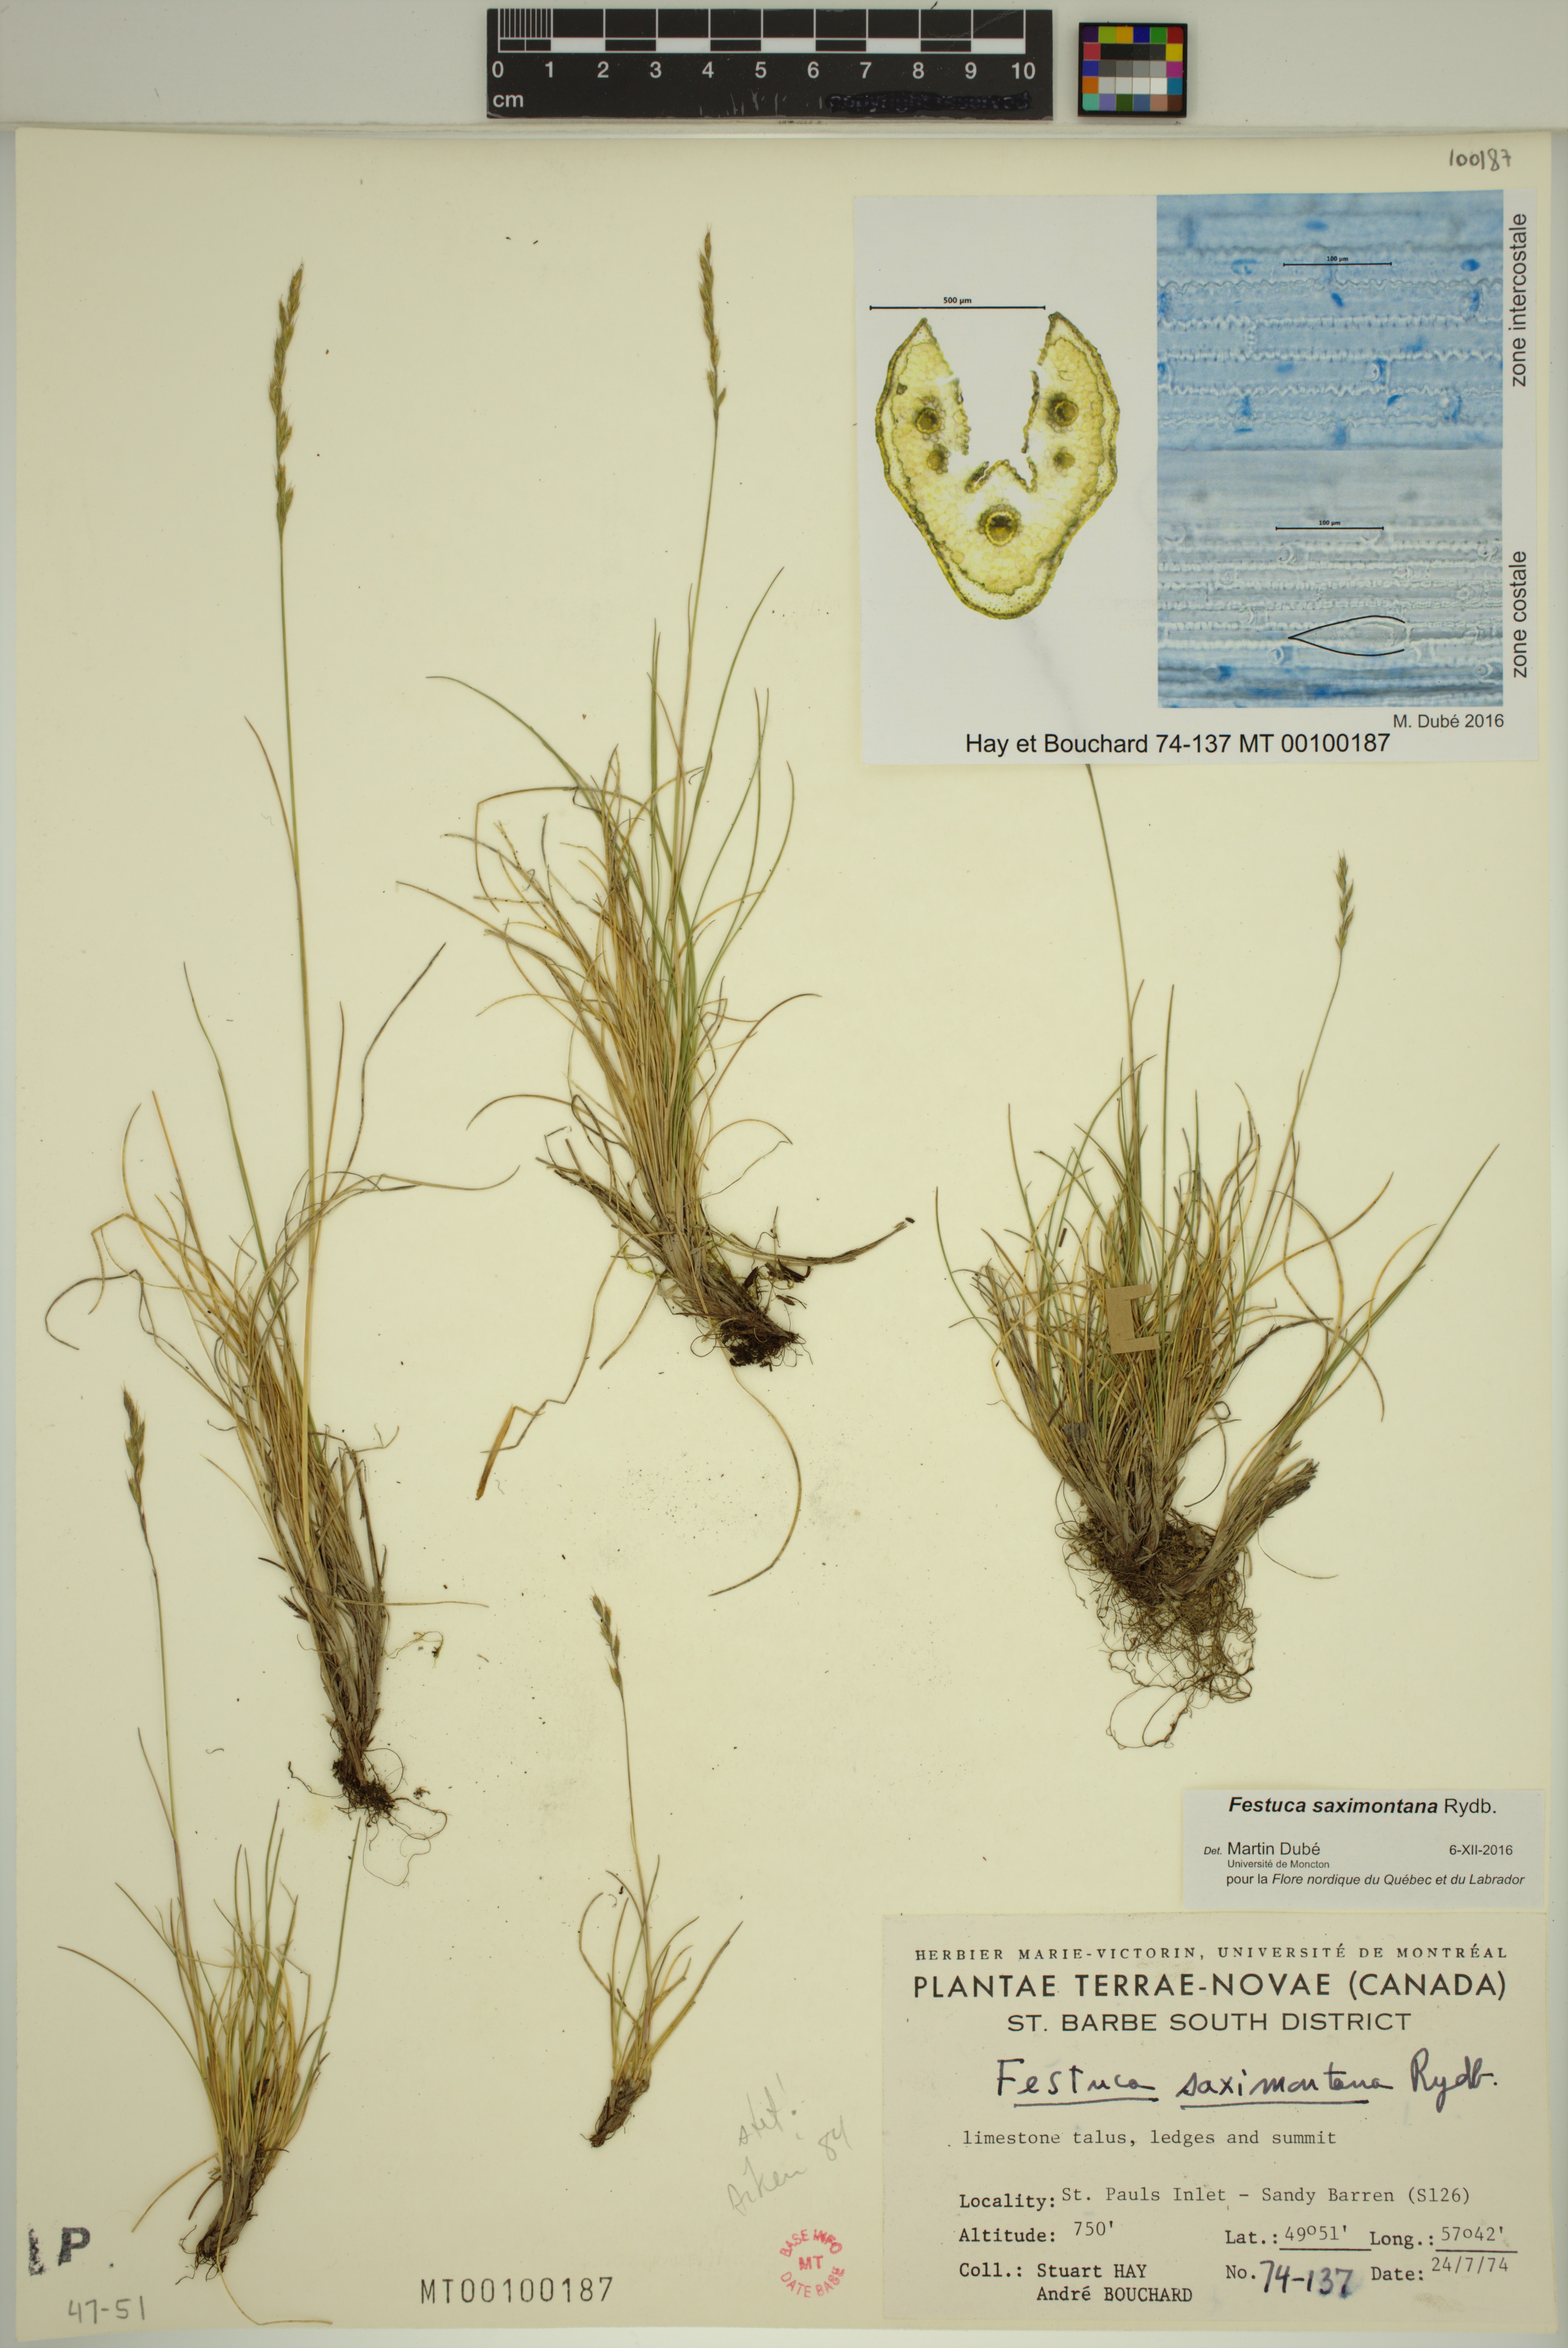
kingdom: Plantae
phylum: Tracheophyta
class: Liliopsida
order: Poales
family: Poaceae
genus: Festuca
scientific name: Festuca saximontana
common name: Mountain fescue
